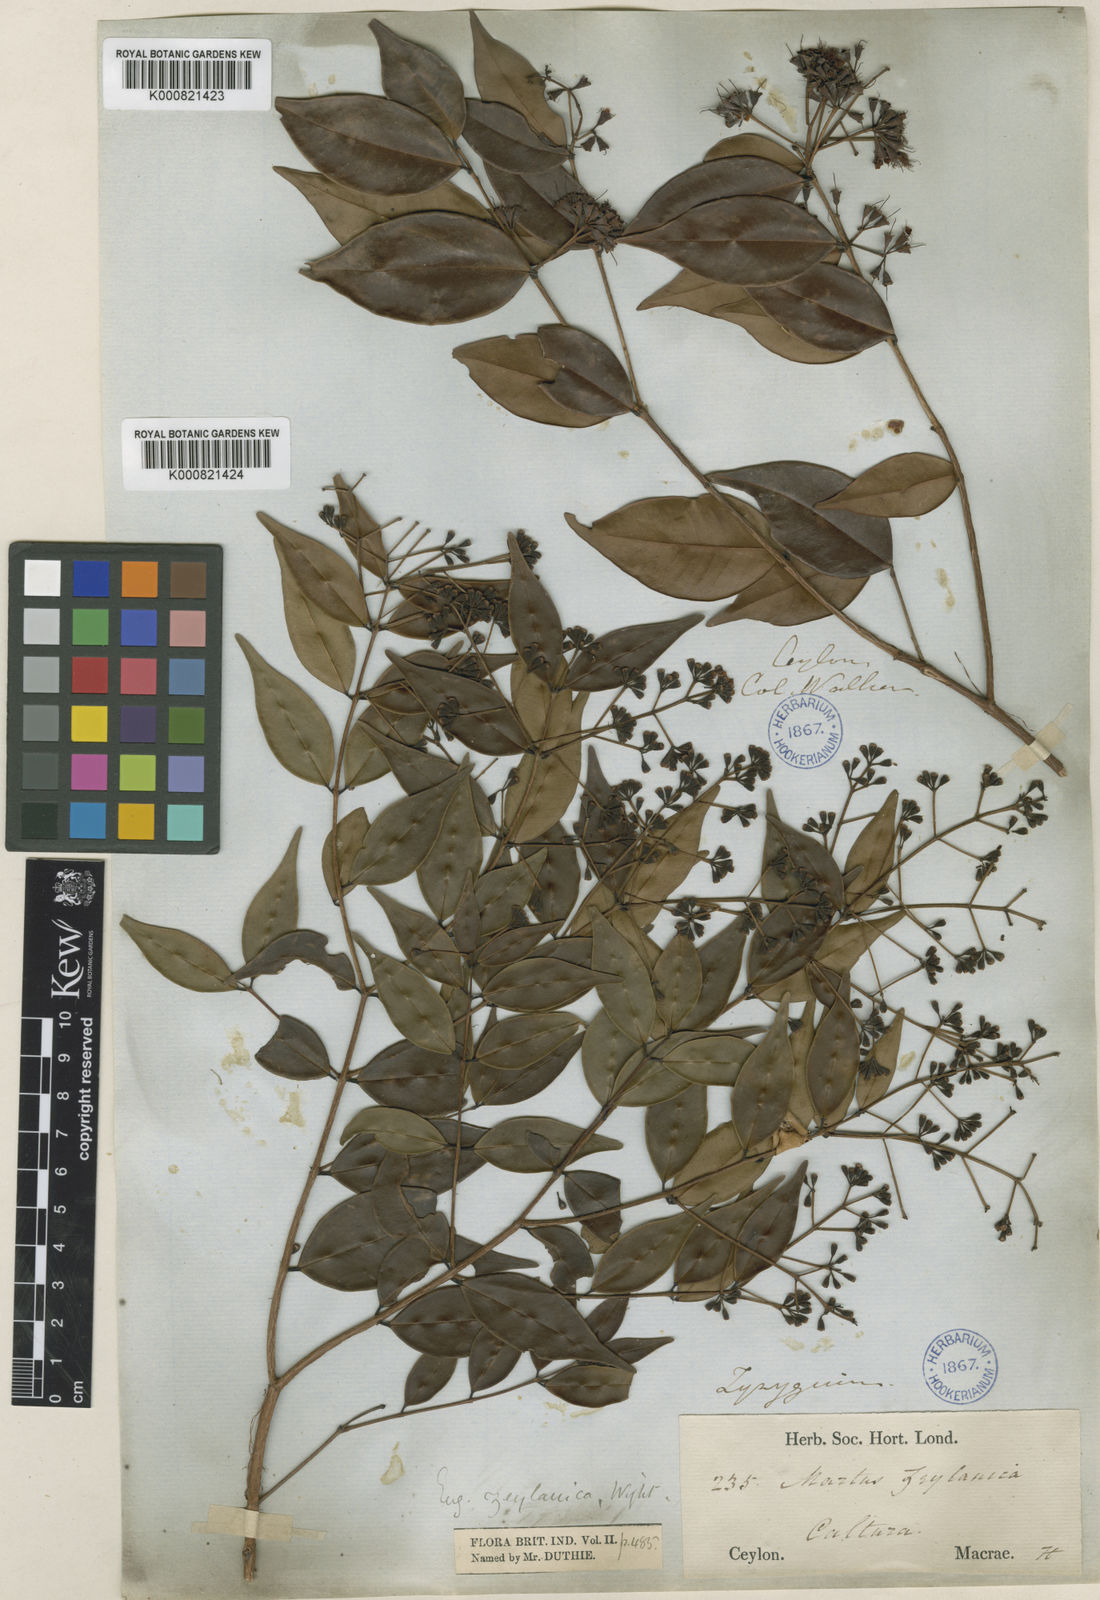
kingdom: Plantae
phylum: Tracheophyta
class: Magnoliopsida
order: Myrtales
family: Myrtaceae
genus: Syzygium
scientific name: Syzygium zeylanicum
